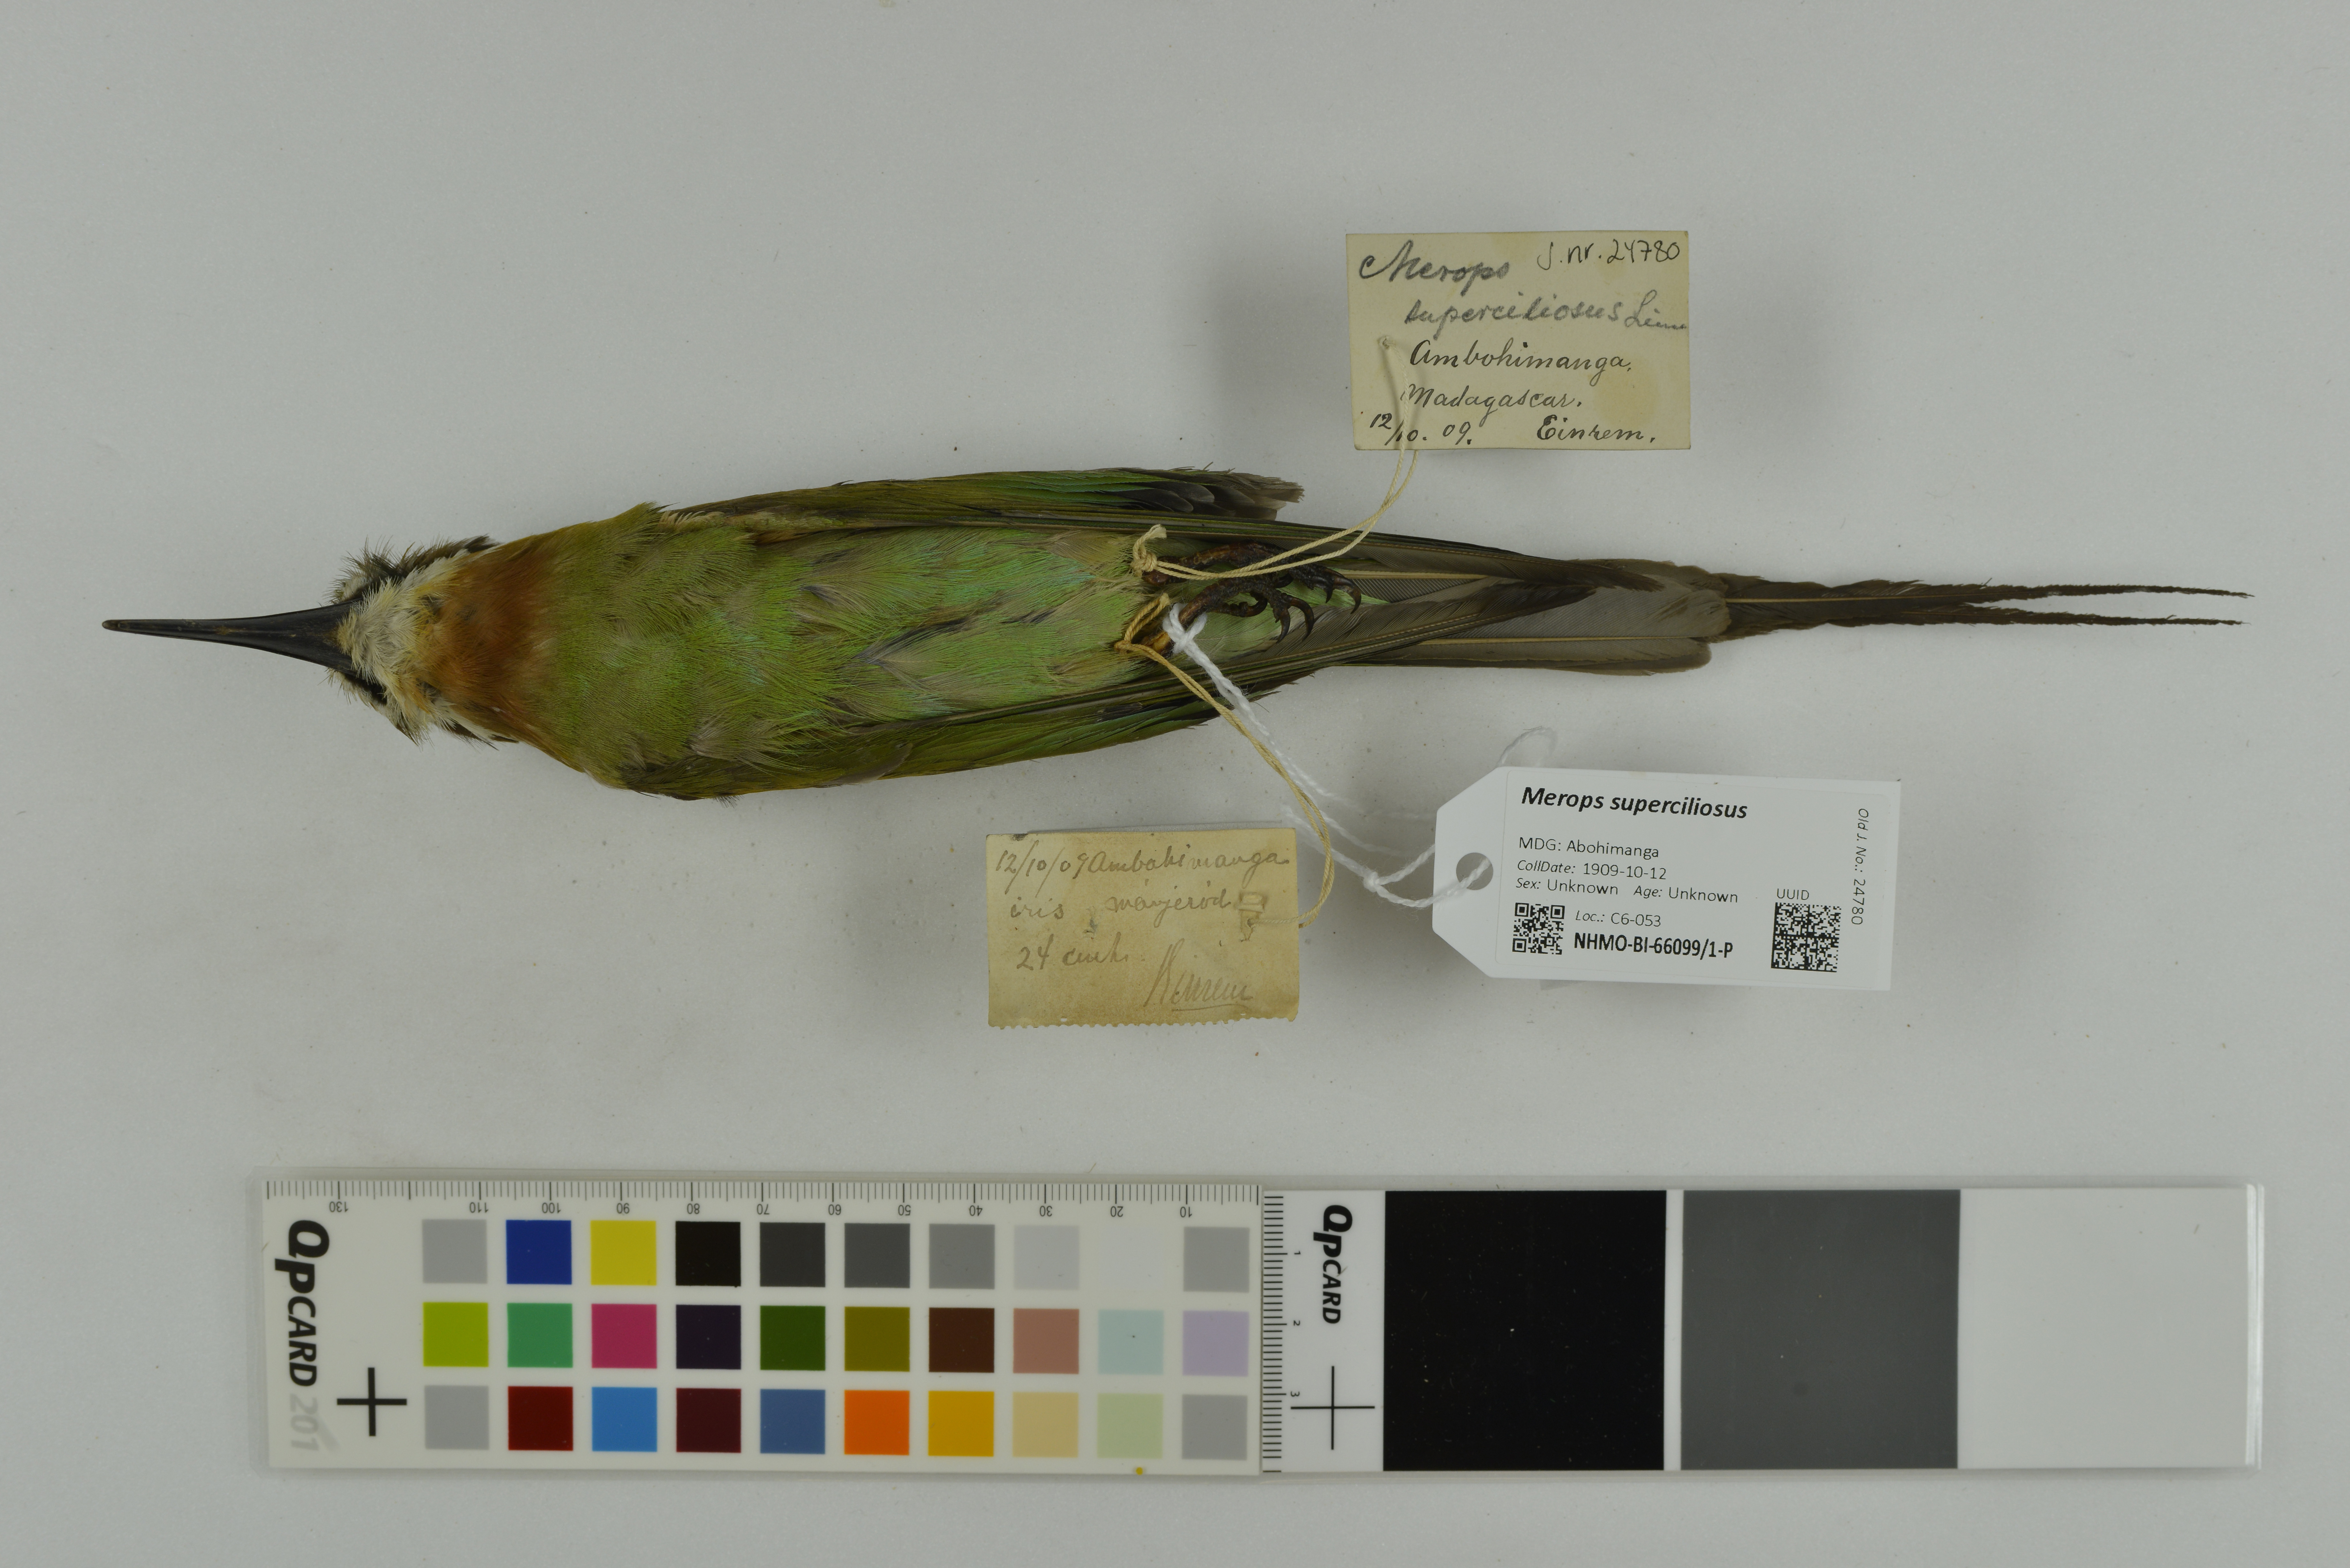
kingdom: Animalia
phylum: Chordata
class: Aves
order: Coraciiformes
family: Meropidae
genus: Merops
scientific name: Merops superciliosus
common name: Olive bee-eater
